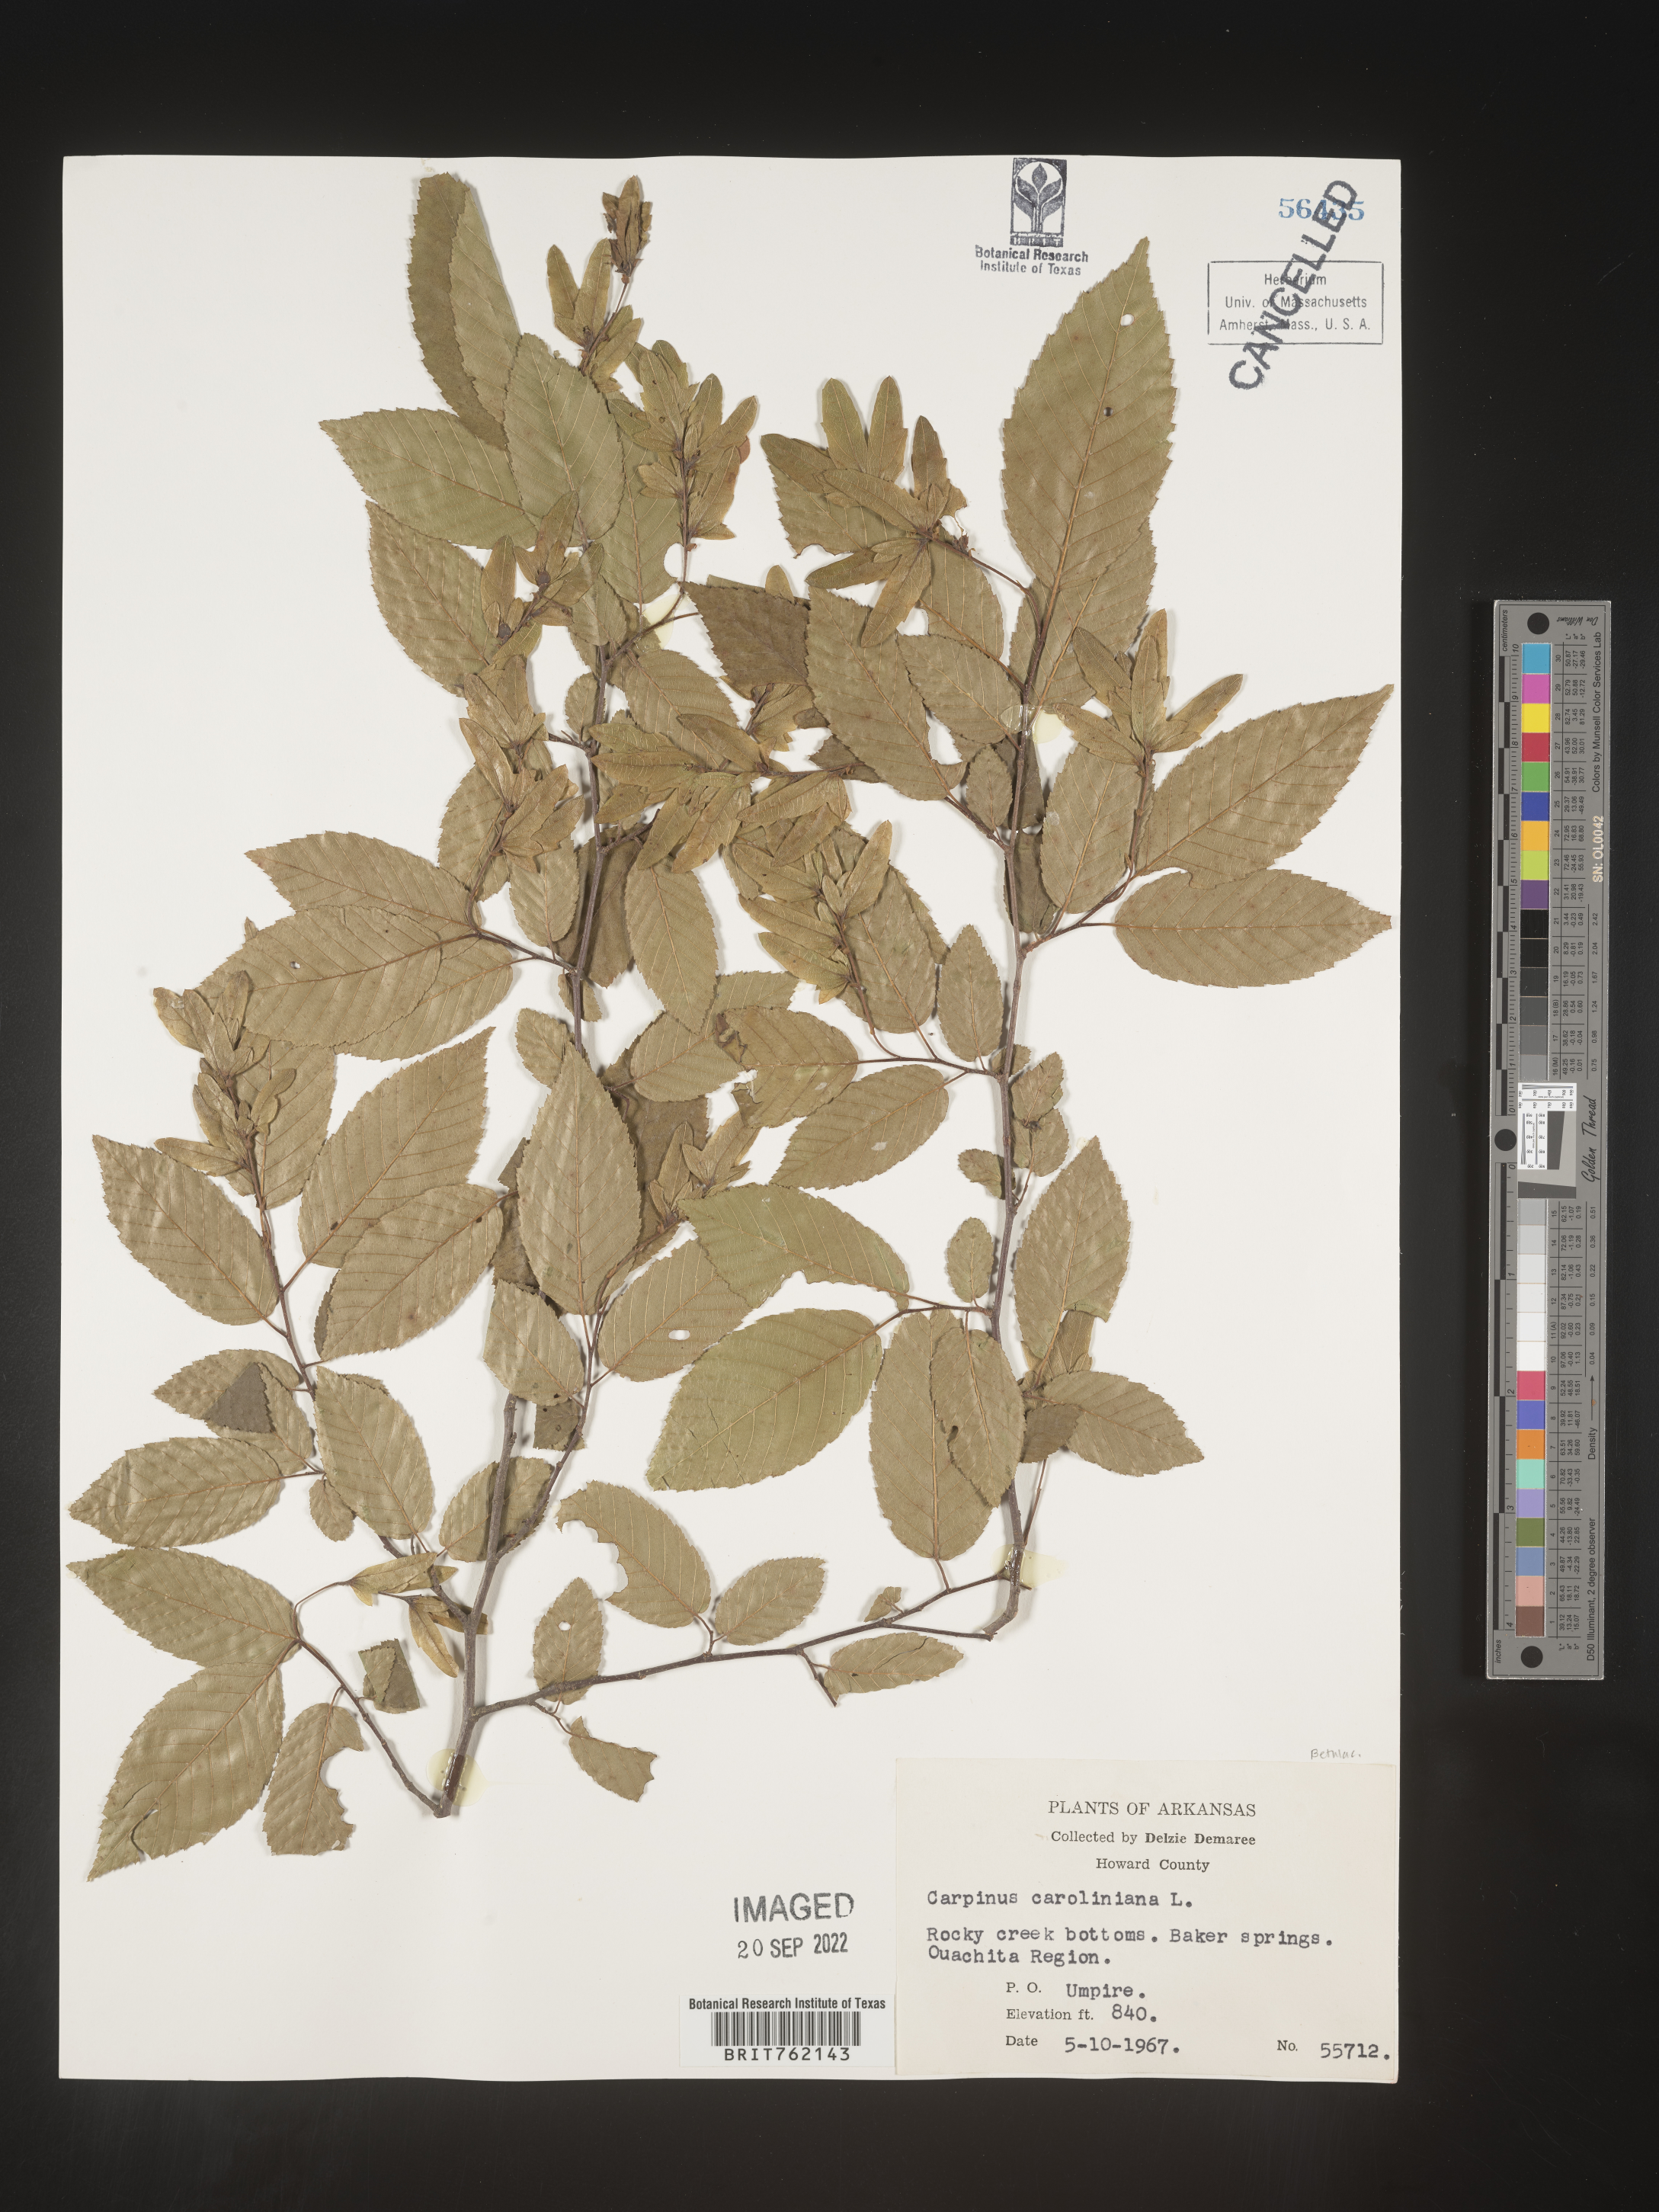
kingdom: Plantae
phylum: Tracheophyta
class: Magnoliopsida
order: Fagales
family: Betulaceae
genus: Carpinus
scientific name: Carpinus caroliniana
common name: American hornbeam
